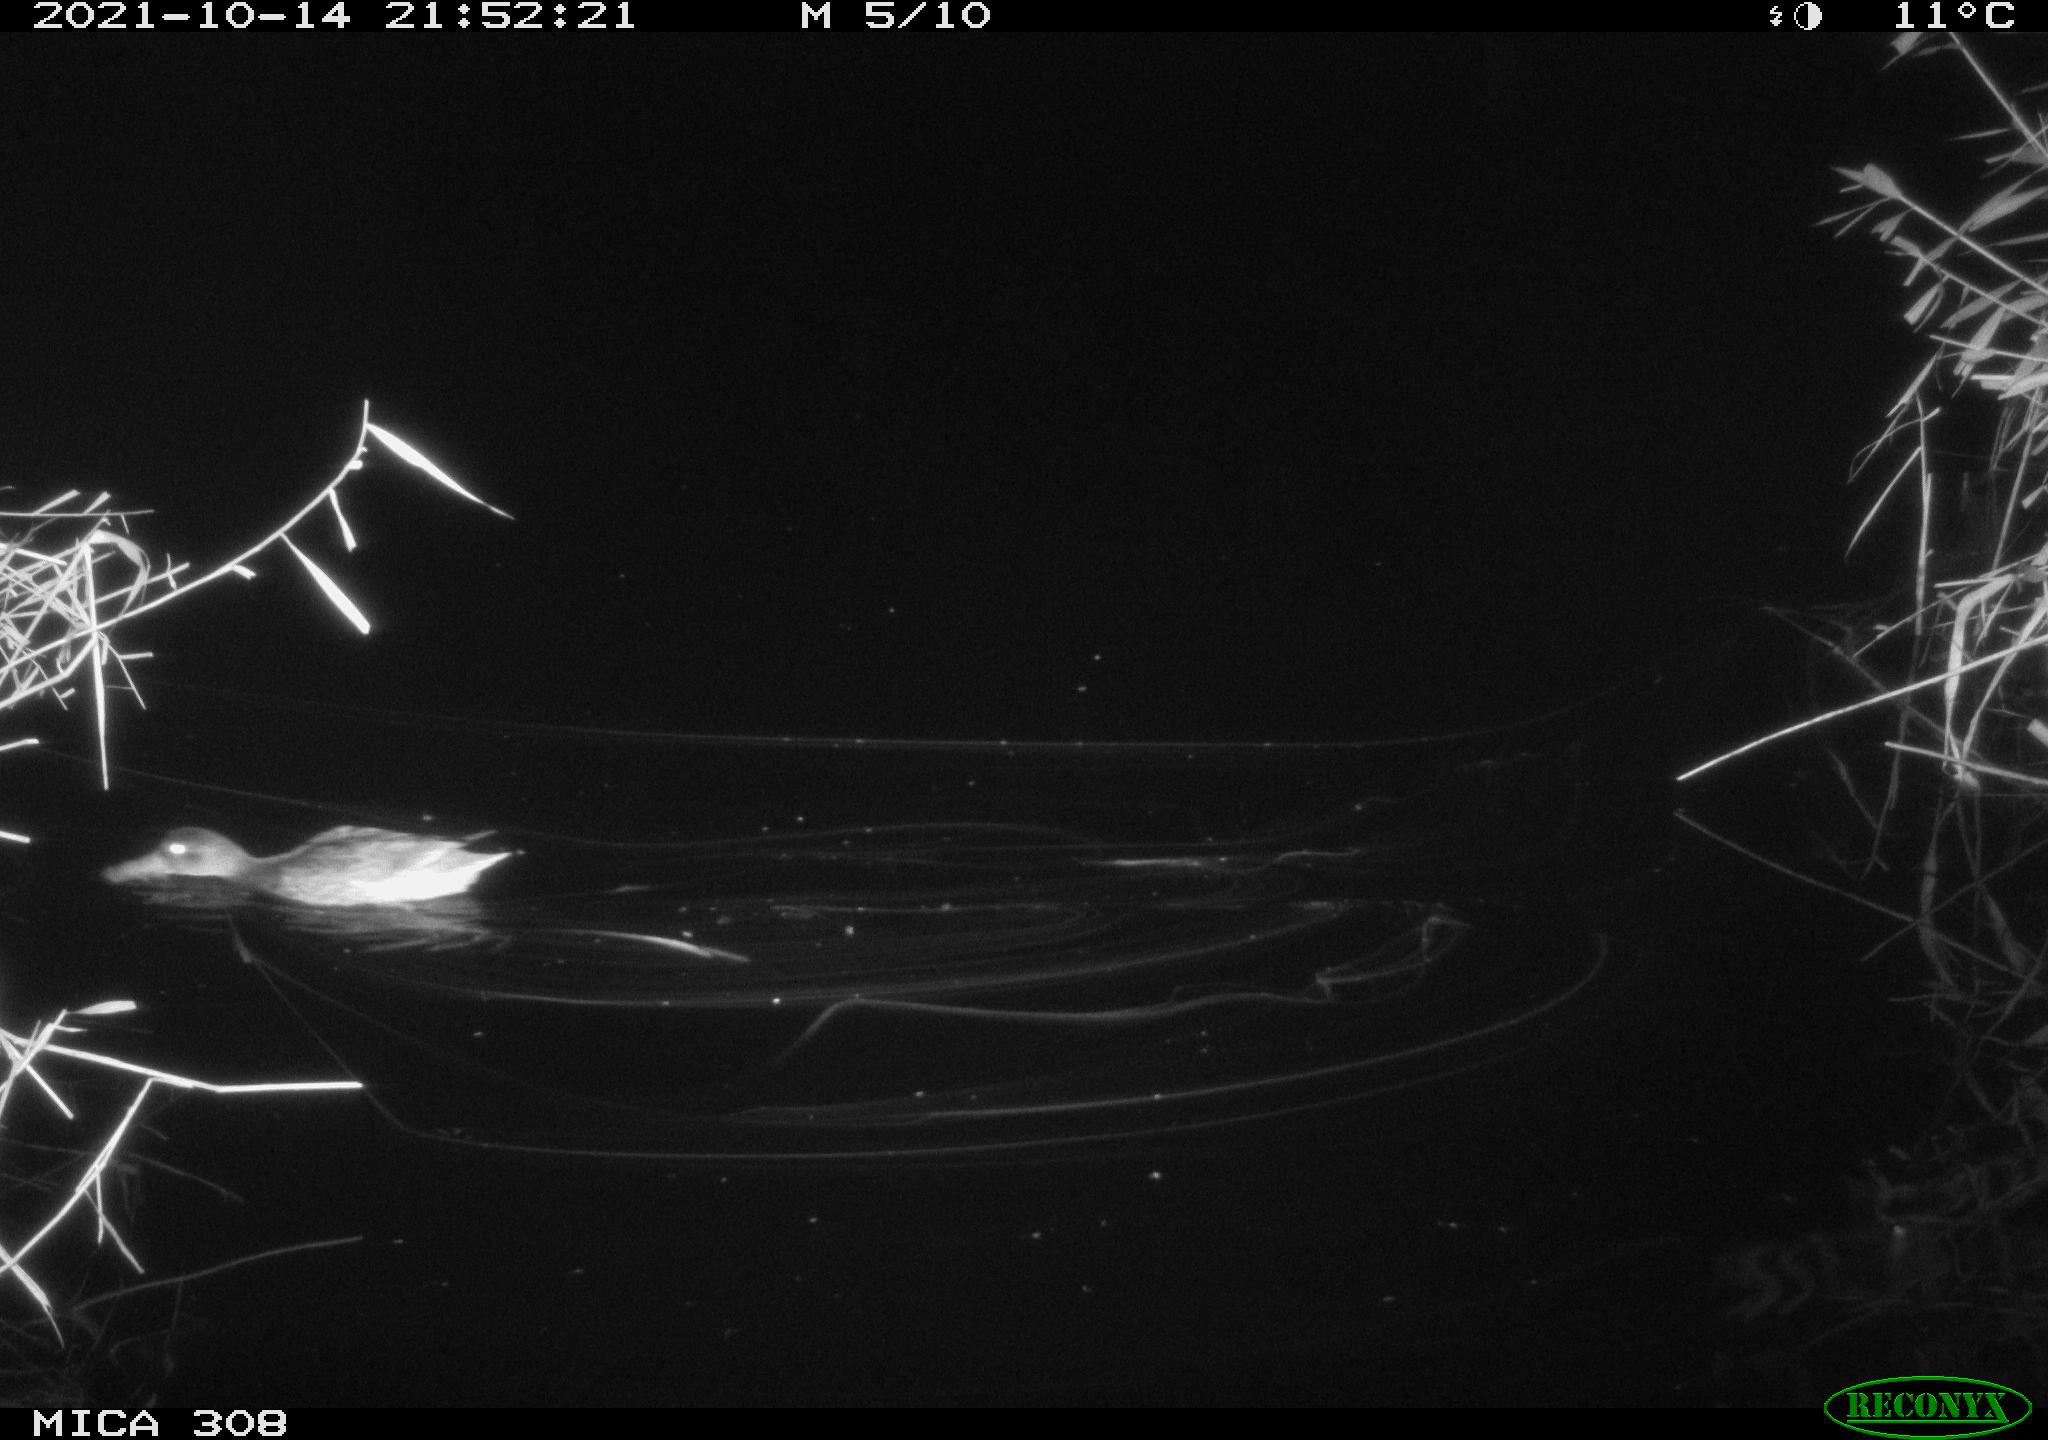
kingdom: Animalia
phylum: Chordata
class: Aves
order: Anseriformes
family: Anatidae
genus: Spatula
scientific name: Spatula clypeata
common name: Northern shoveler
